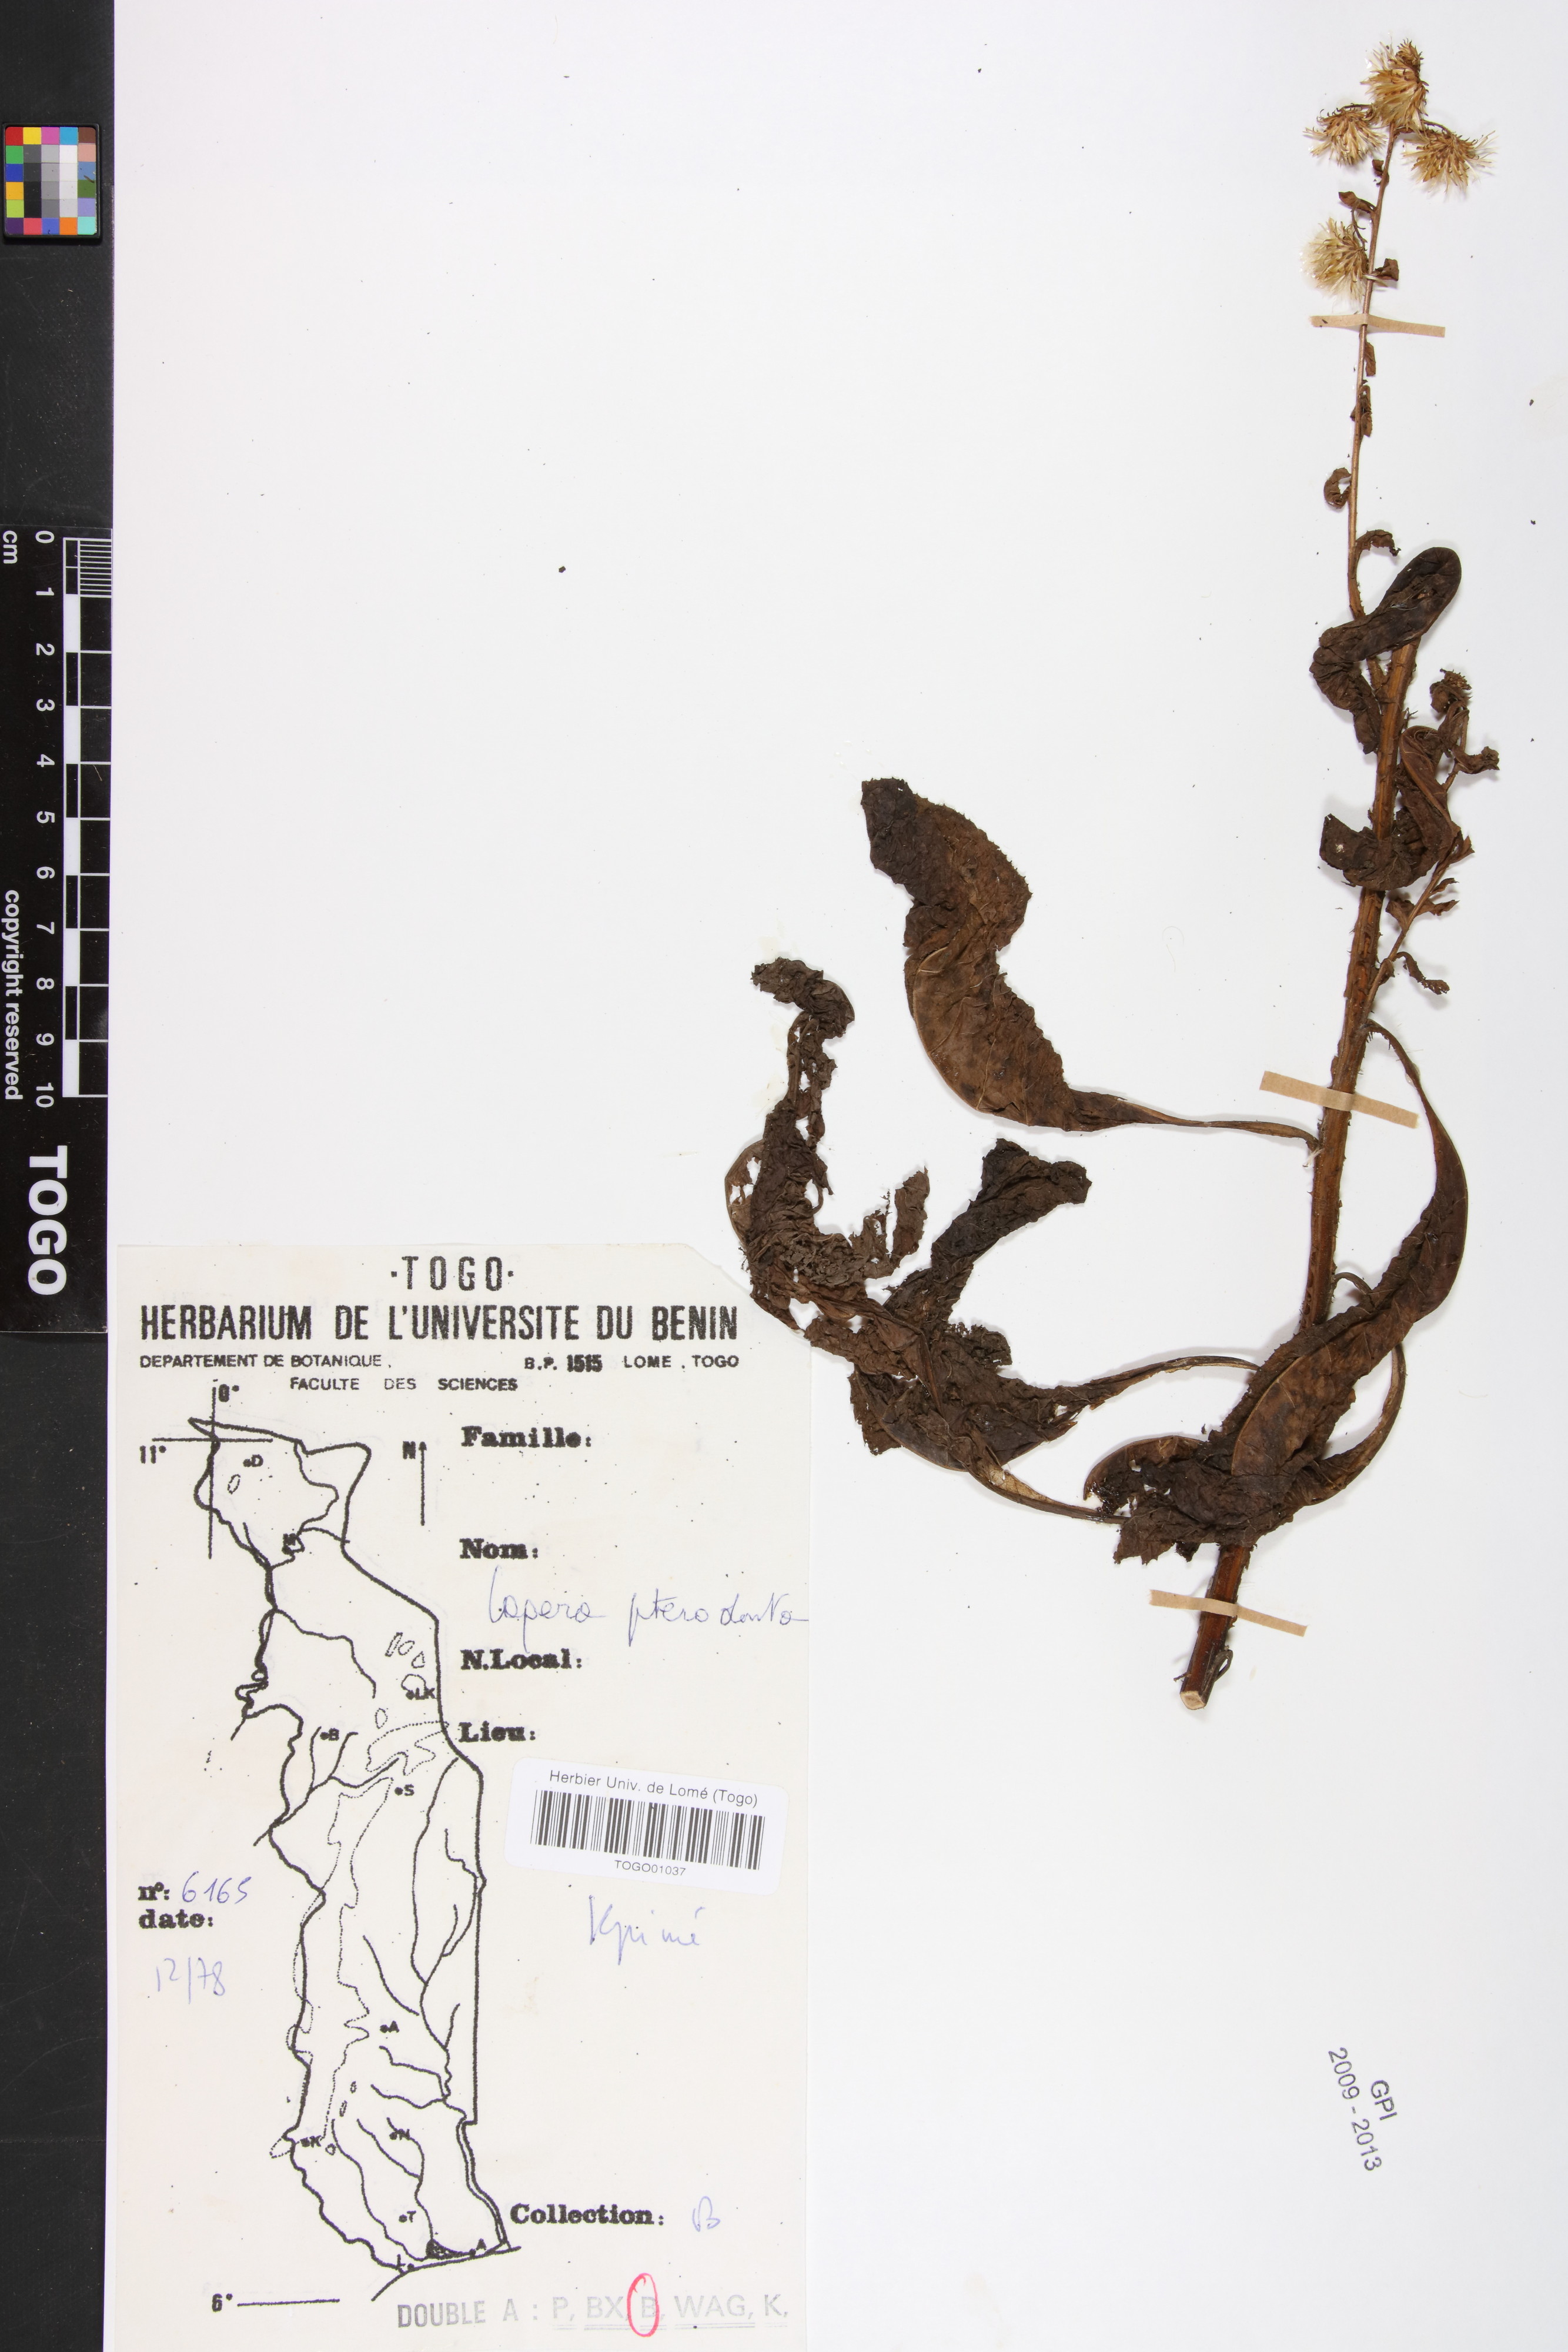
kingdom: Plantae
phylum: Tracheophyta
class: Magnoliopsida
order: Asterales
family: Asteraceae
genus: Laggera
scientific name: Laggera crispata
